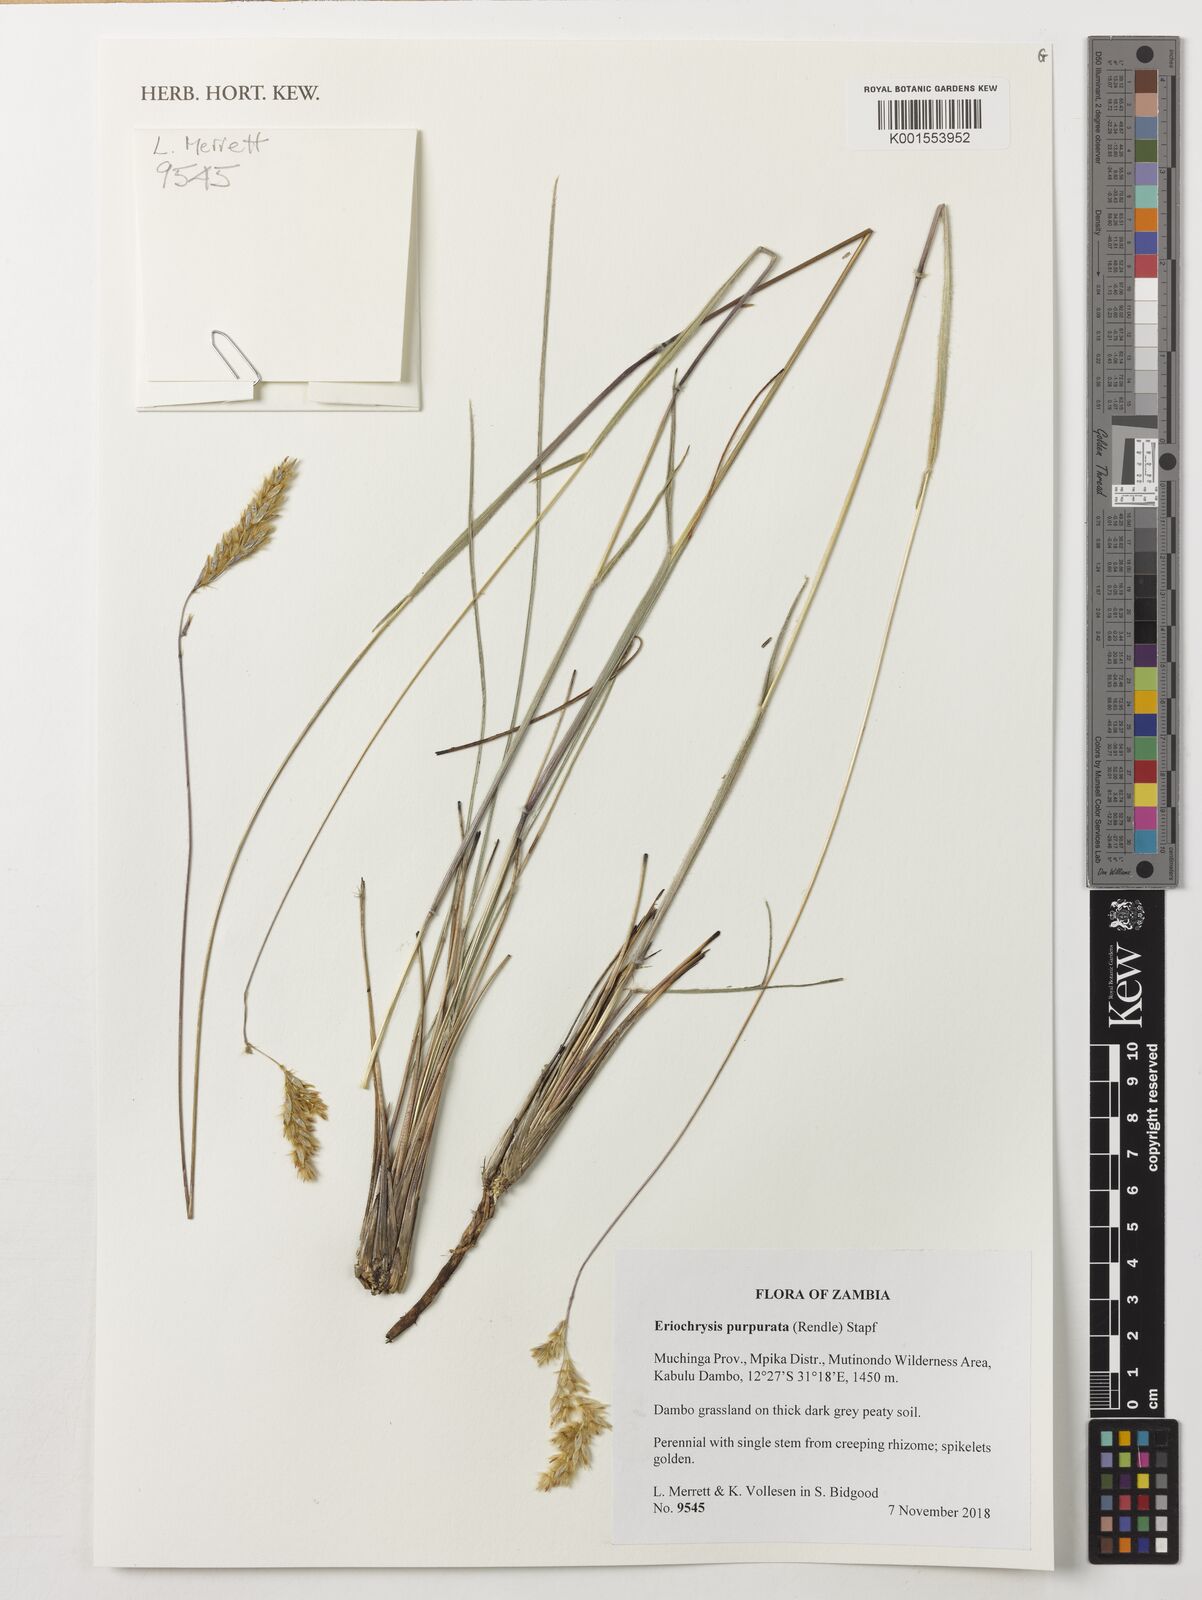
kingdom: Plantae
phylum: Tracheophyta
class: Liliopsida
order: Poales
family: Poaceae
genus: Eriochrysis
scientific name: Eriochrysis purpurata
